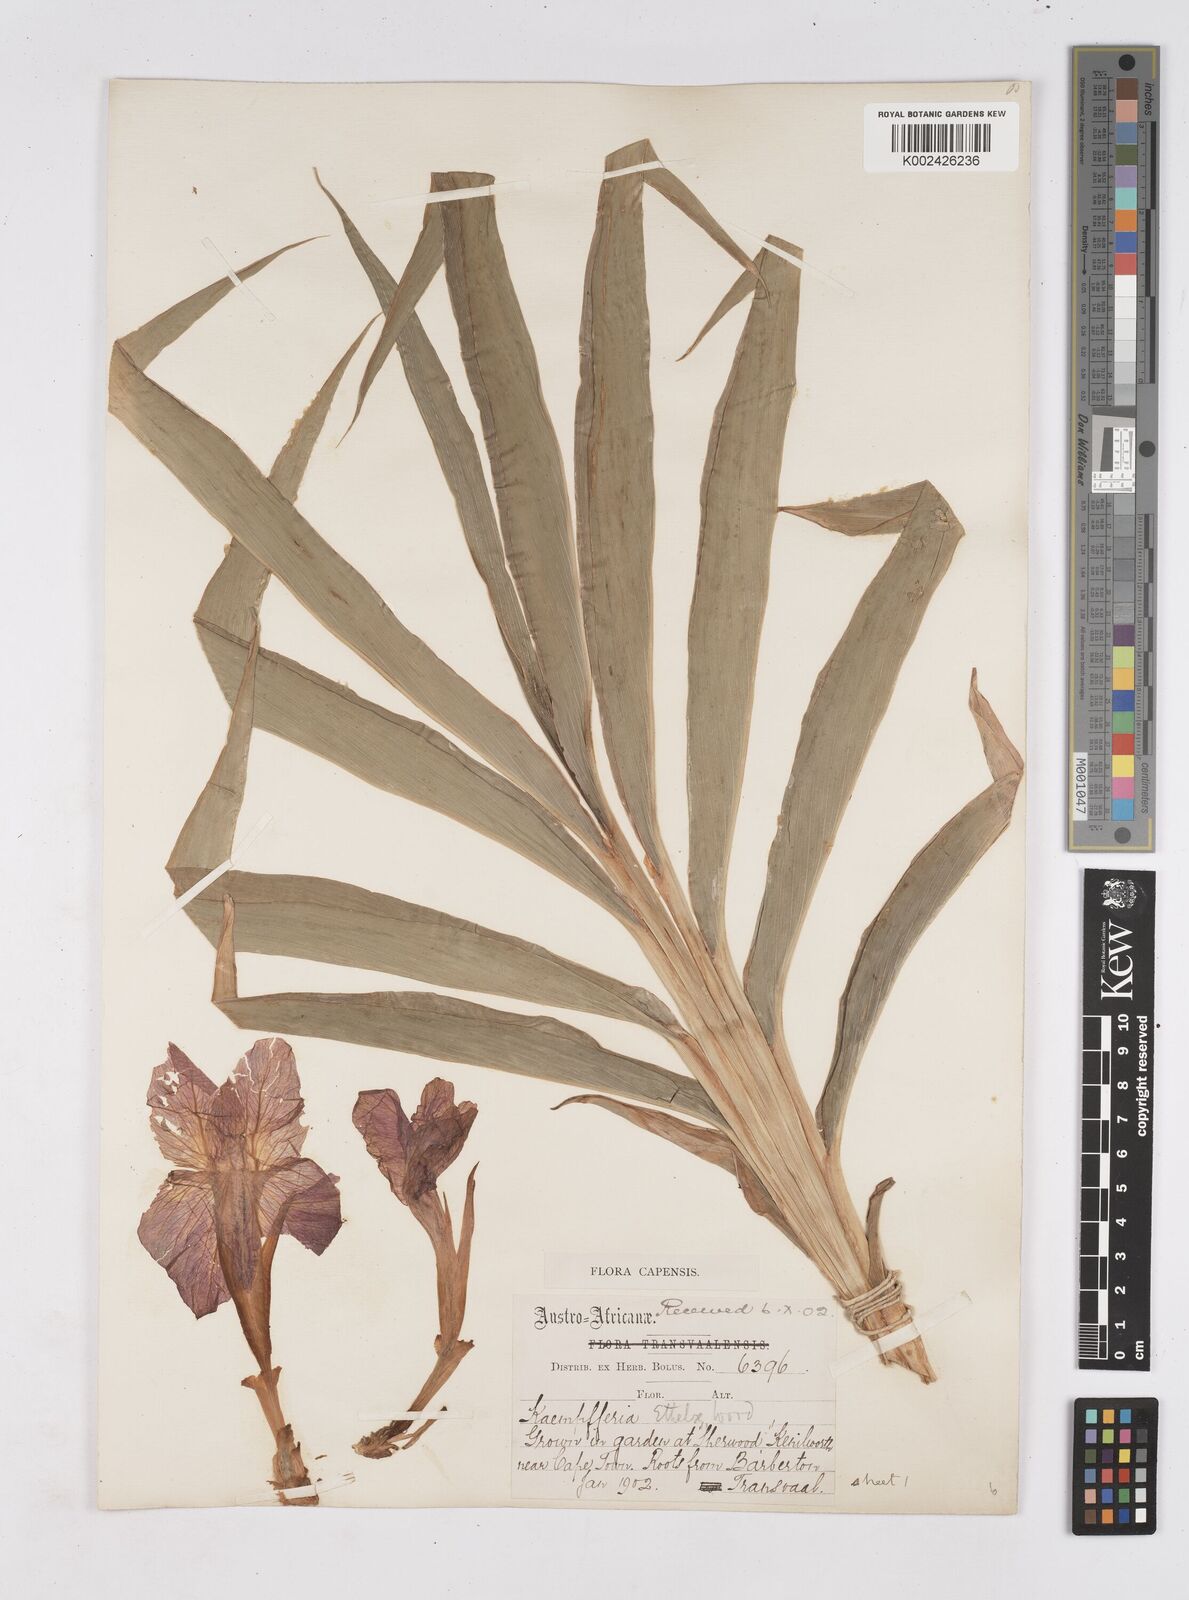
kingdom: Plantae
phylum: Tracheophyta
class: Liliopsida
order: Zingiberales
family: Zingiberaceae
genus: Siphonochilus
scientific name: Siphonochilus
